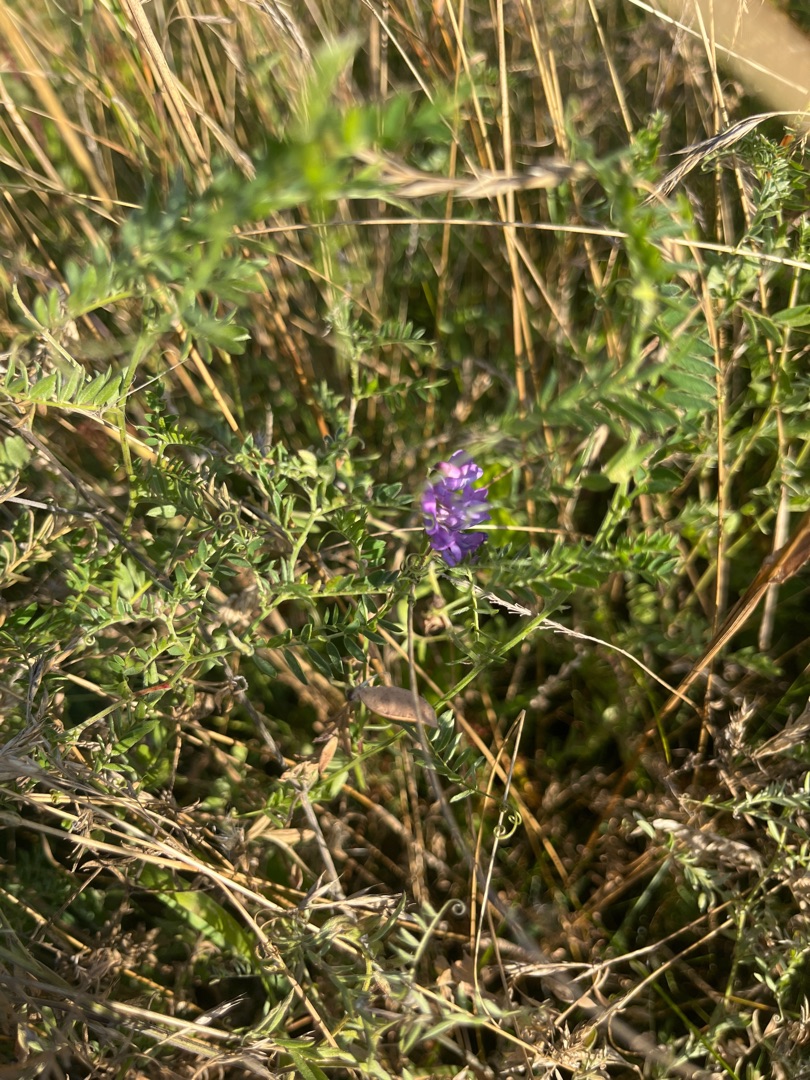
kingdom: Plantae
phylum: Tracheophyta
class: Magnoliopsida
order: Fabales
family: Fabaceae
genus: Vicia
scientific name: Vicia cracca
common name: Muse-vikke
